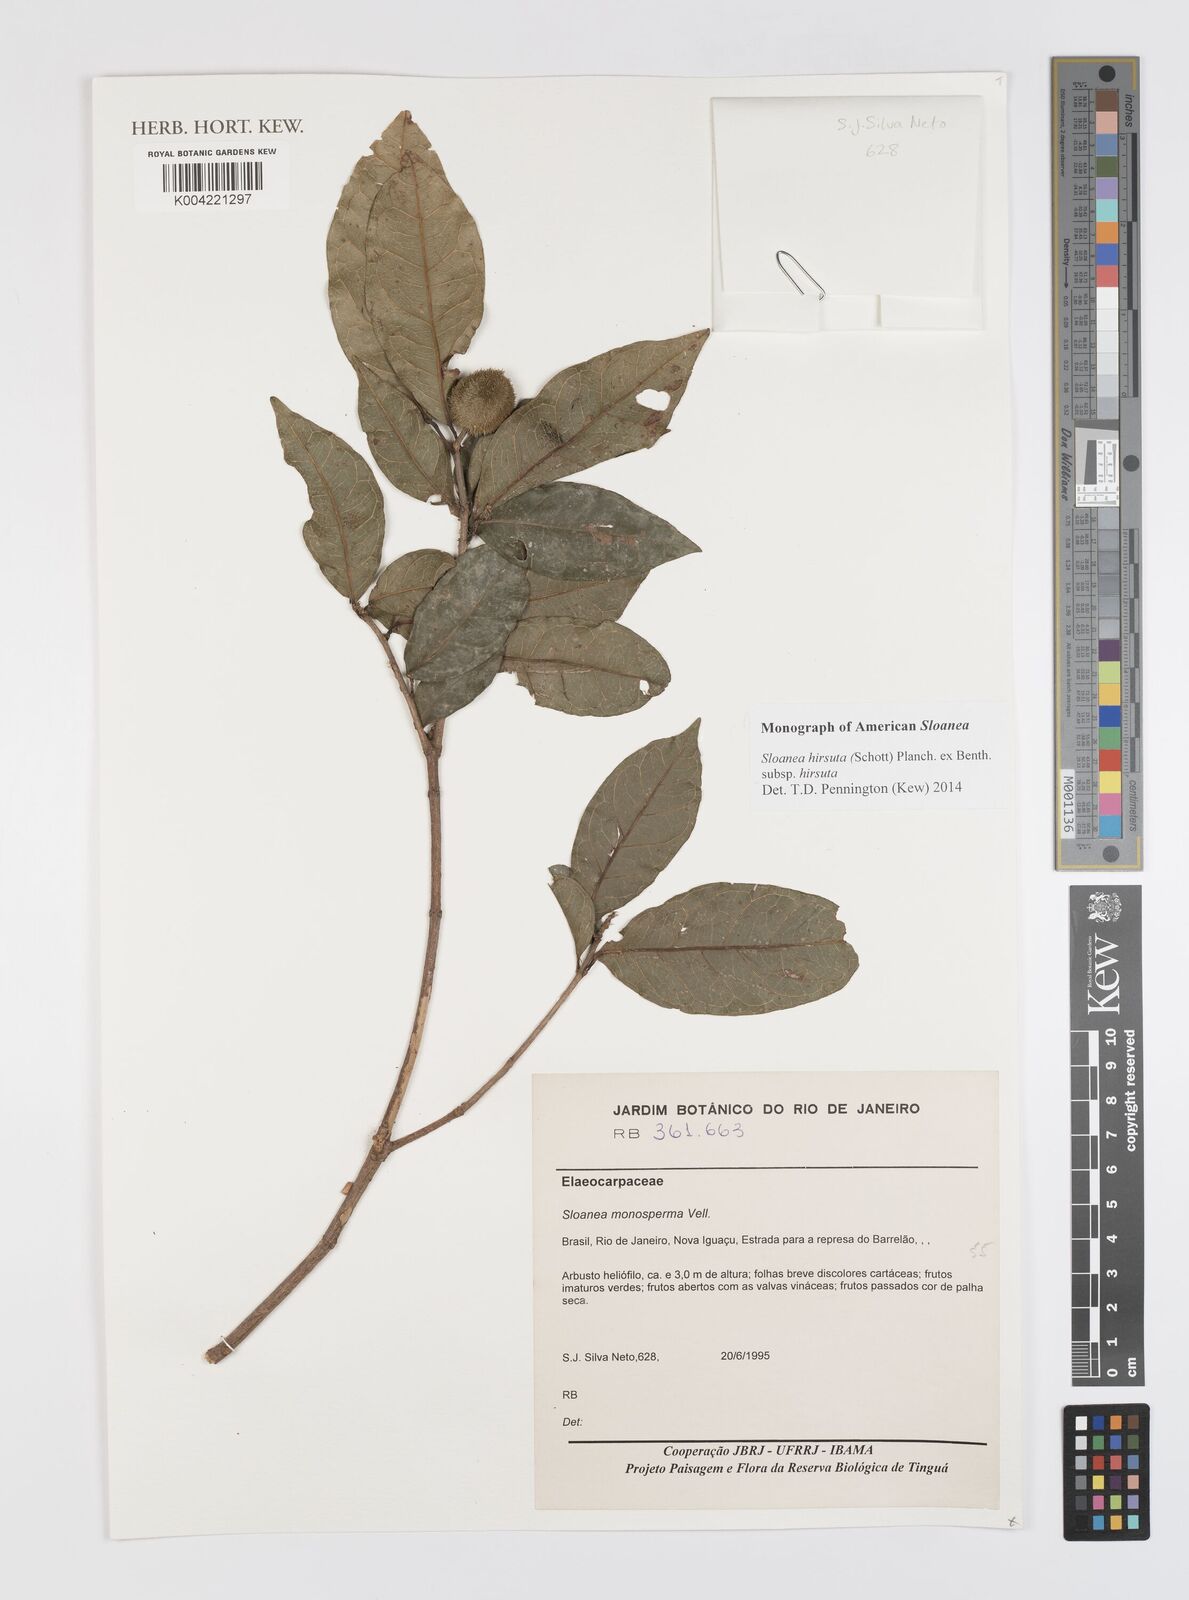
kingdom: Plantae
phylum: Tracheophyta
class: Magnoliopsida
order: Oxalidales
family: Elaeocarpaceae
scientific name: Elaeocarpaceae
